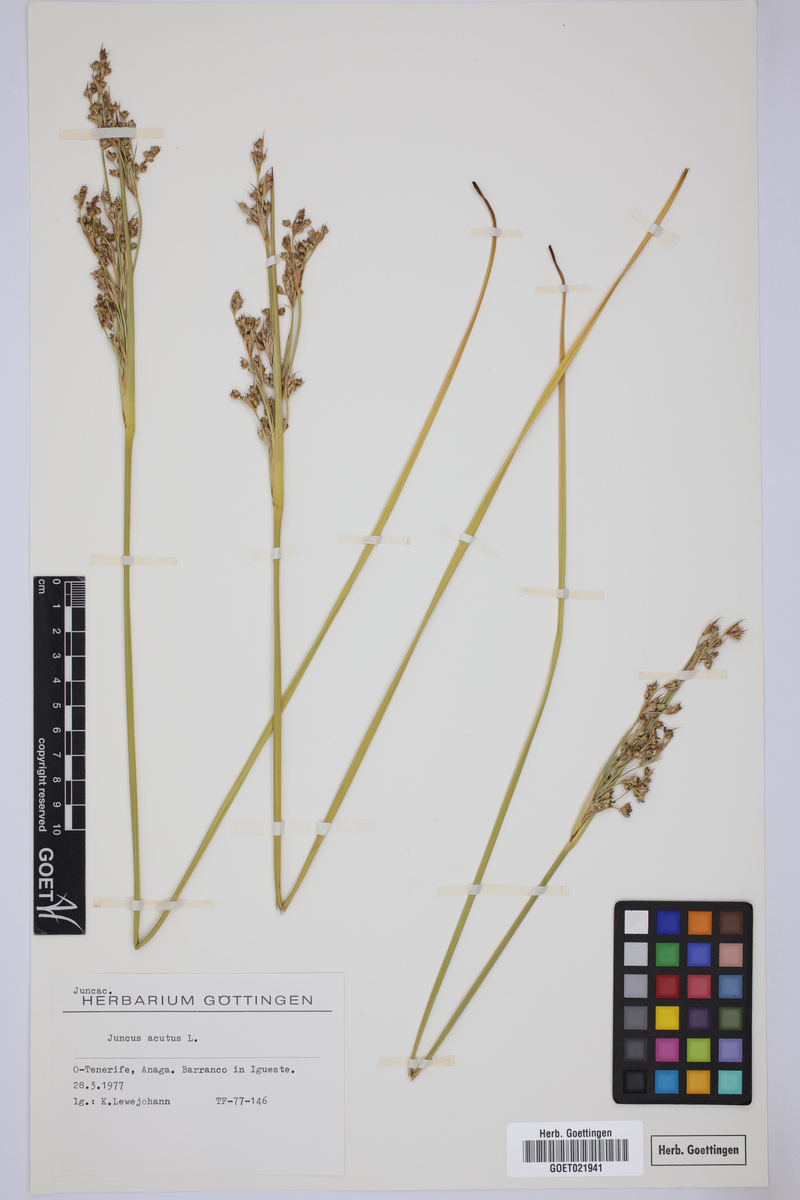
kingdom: Plantae
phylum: Tracheophyta
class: Liliopsida
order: Poales
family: Juncaceae
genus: Juncus
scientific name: Juncus acutus
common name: Sharp rush
